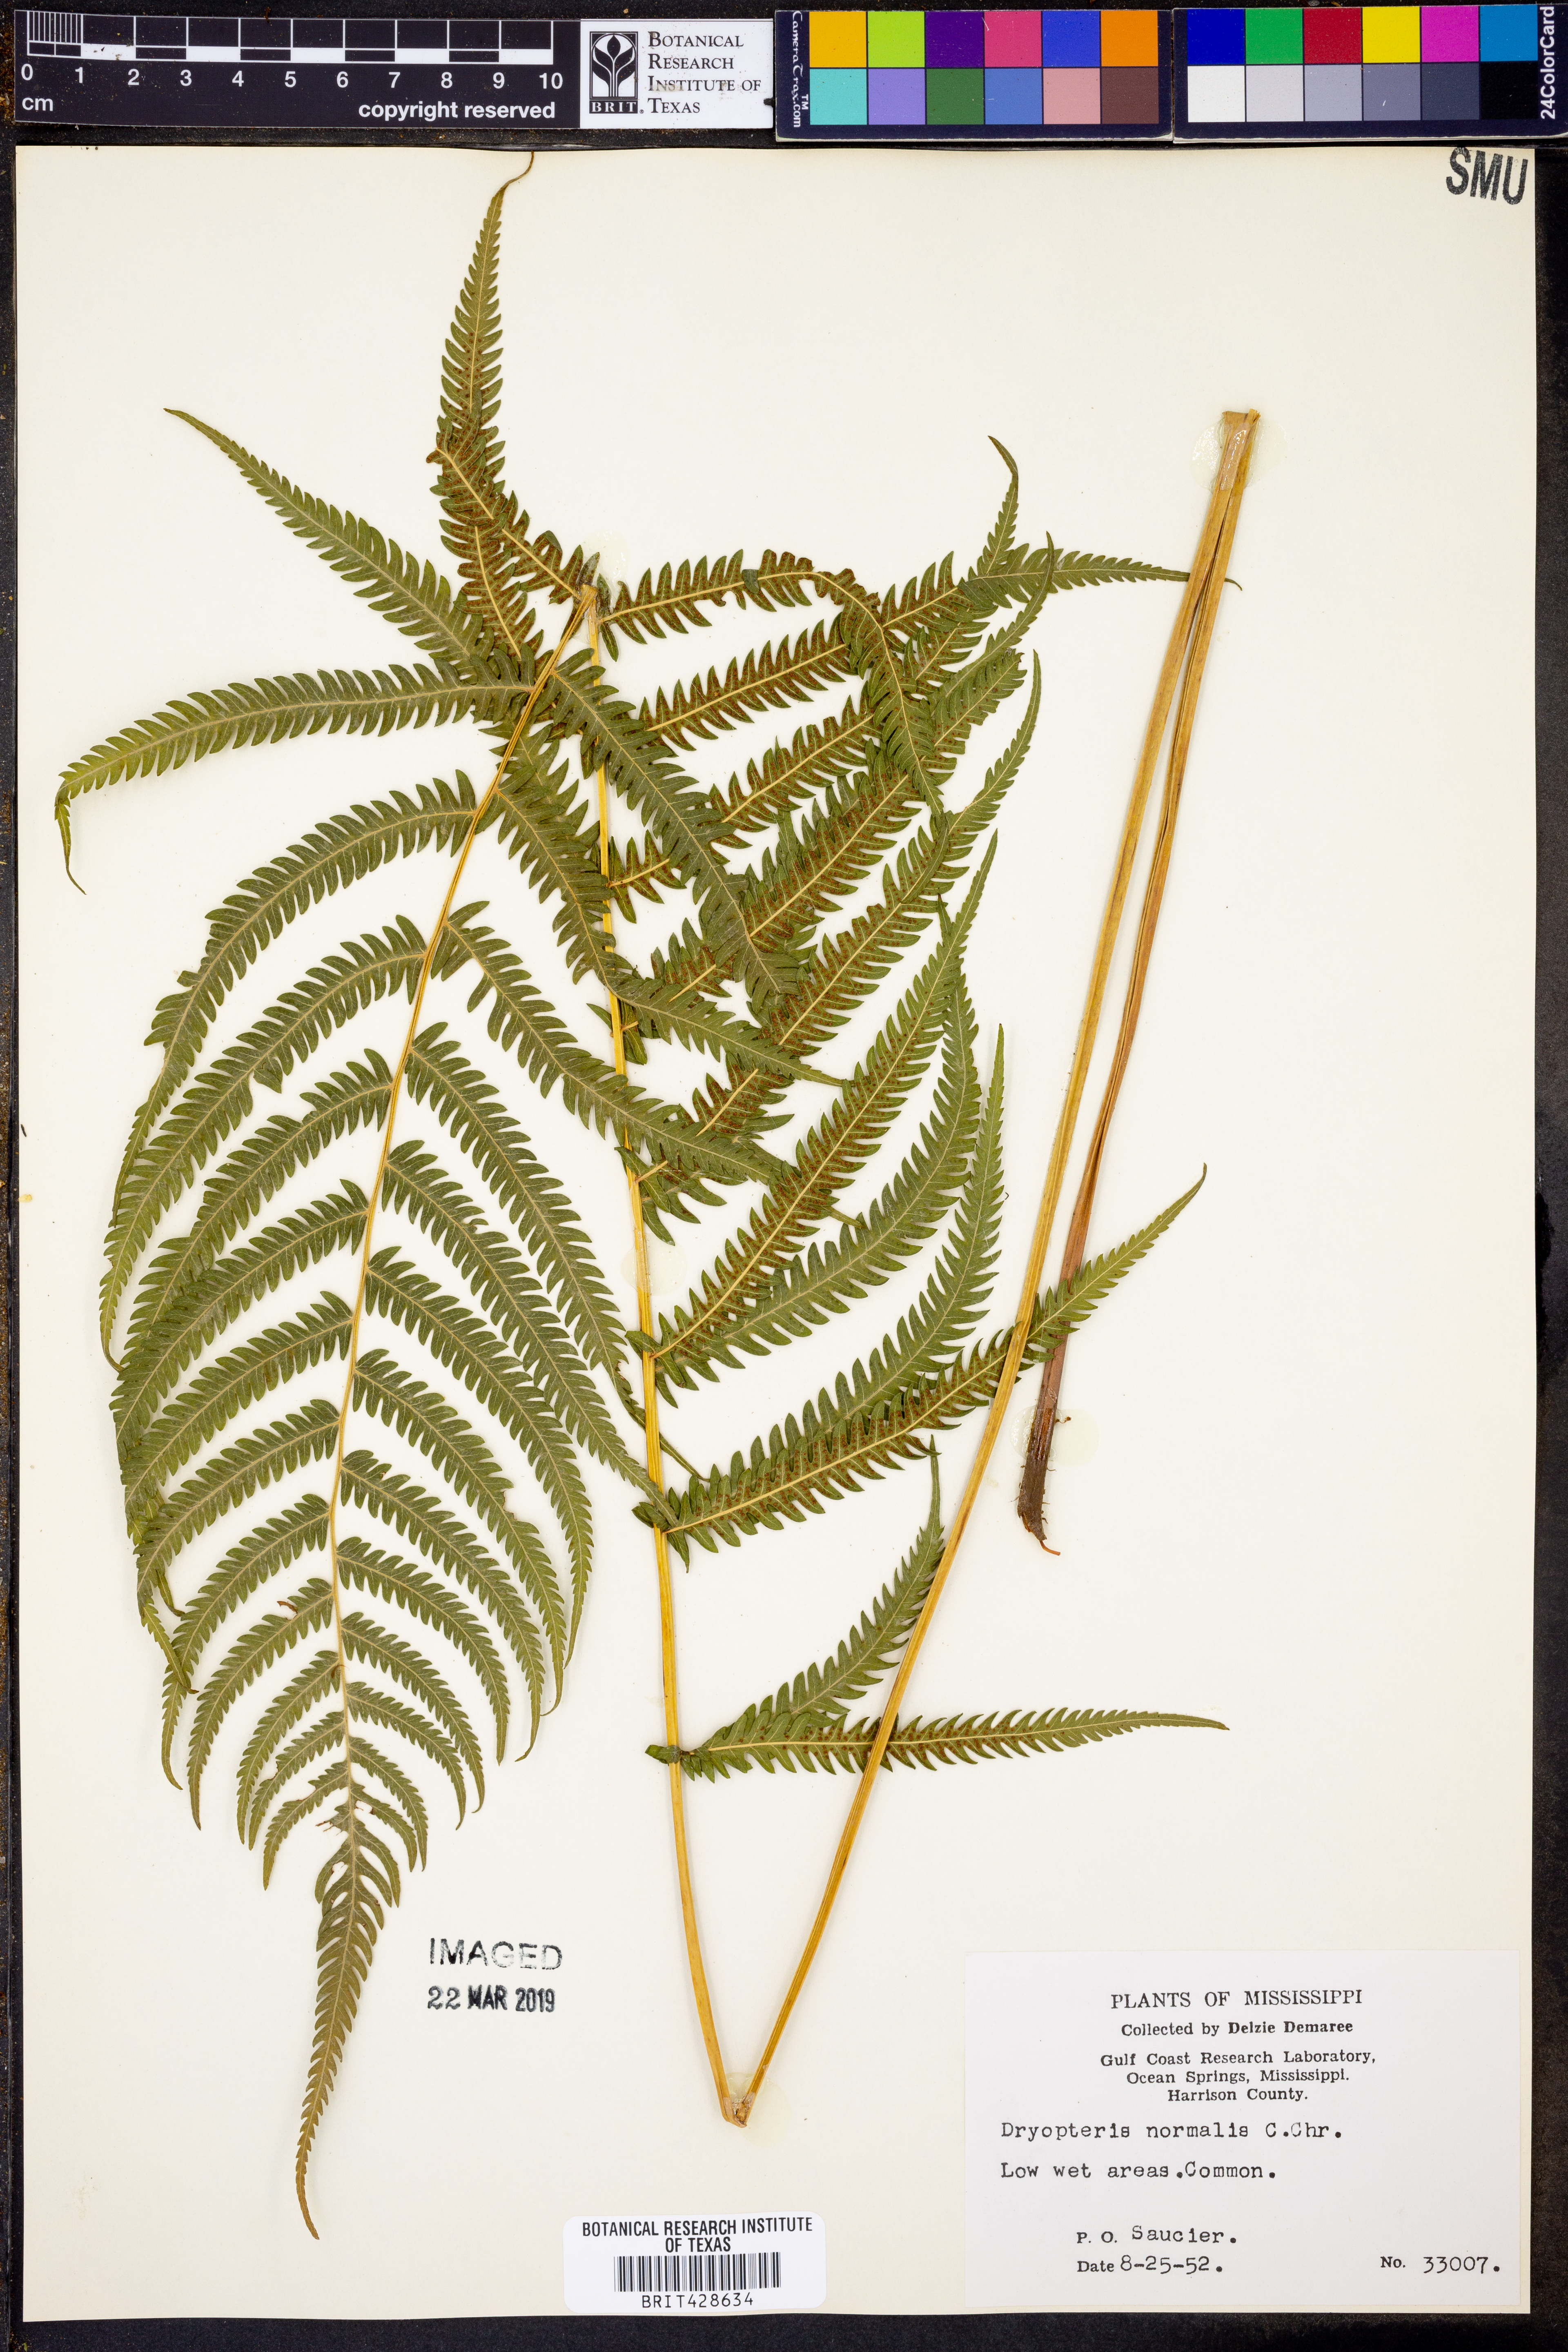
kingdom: Plantae
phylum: Tracheophyta
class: Polypodiopsida
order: Polypodiales
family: Thelypteridaceae
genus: Pelazoneuron
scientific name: Pelazoneuron kunthii
